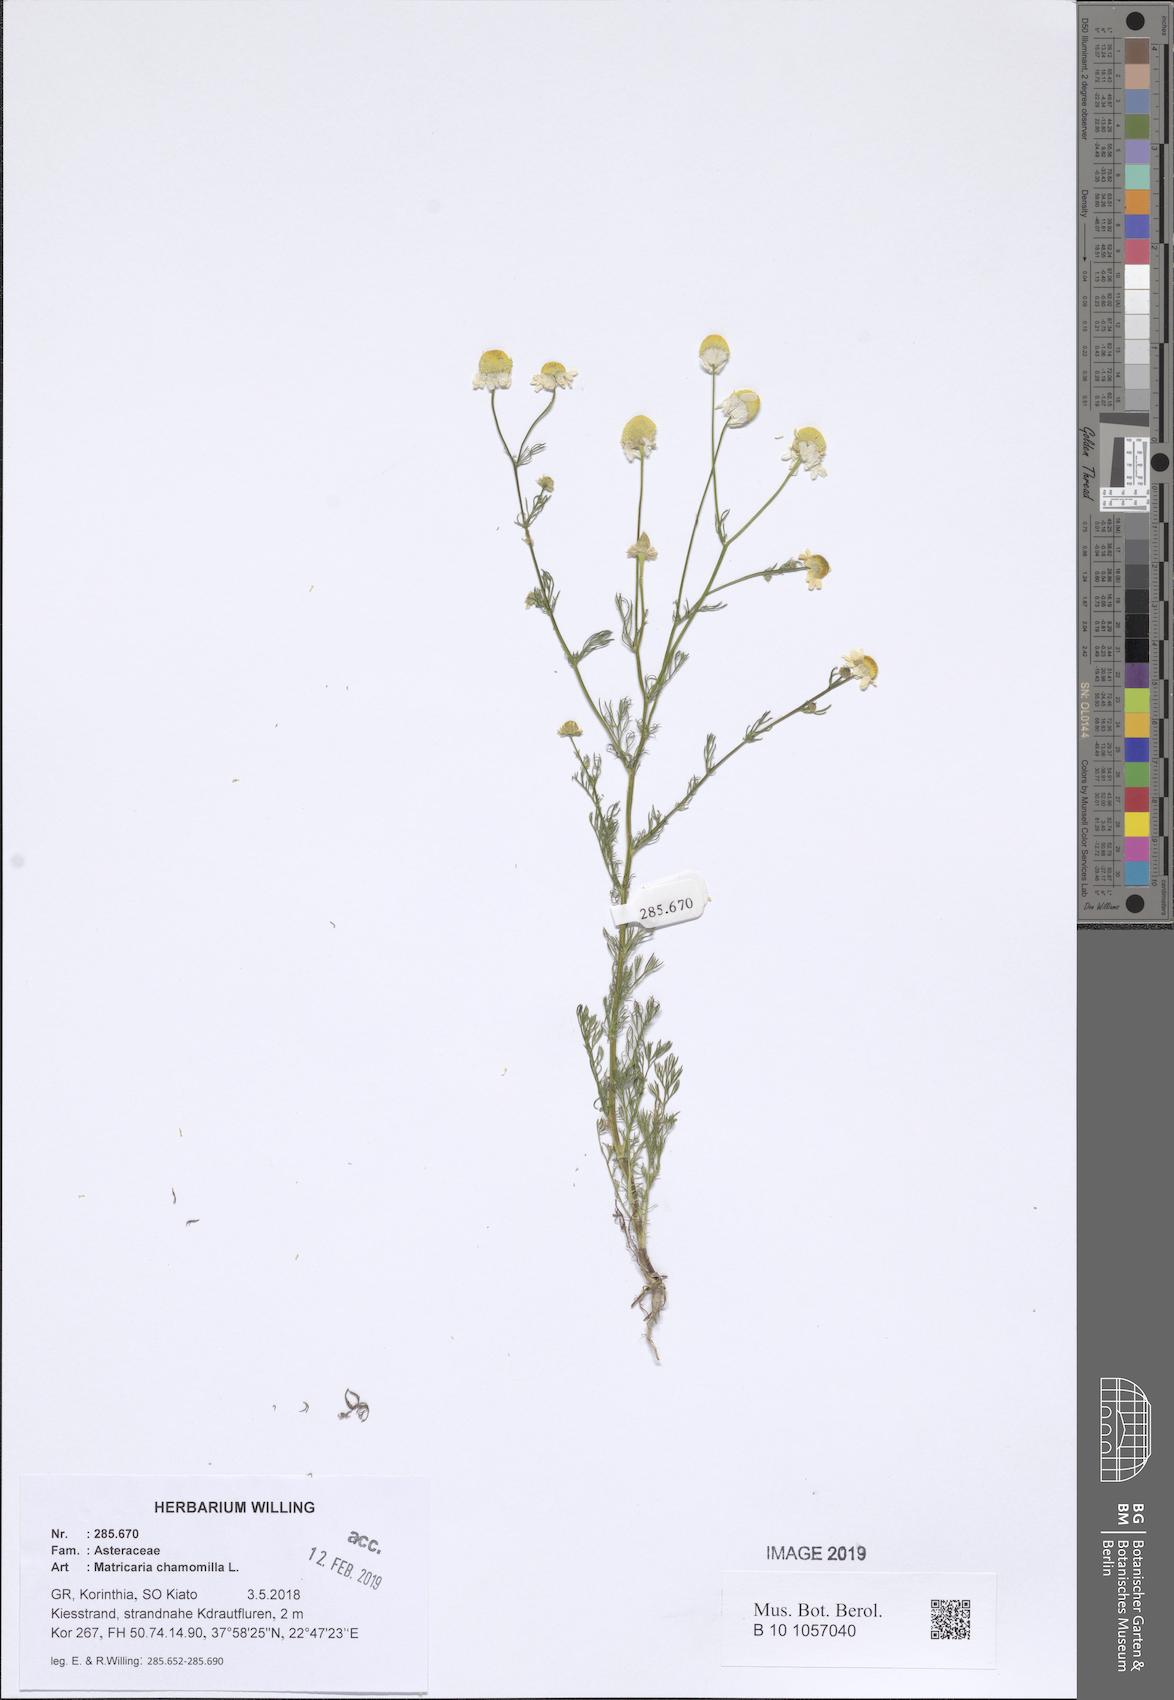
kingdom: Plantae
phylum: Tracheophyta
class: Magnoliopsida
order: Asterales
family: Asteraceae
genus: Matricaria
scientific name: Matricaria chamomilla
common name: Scented mayweed
